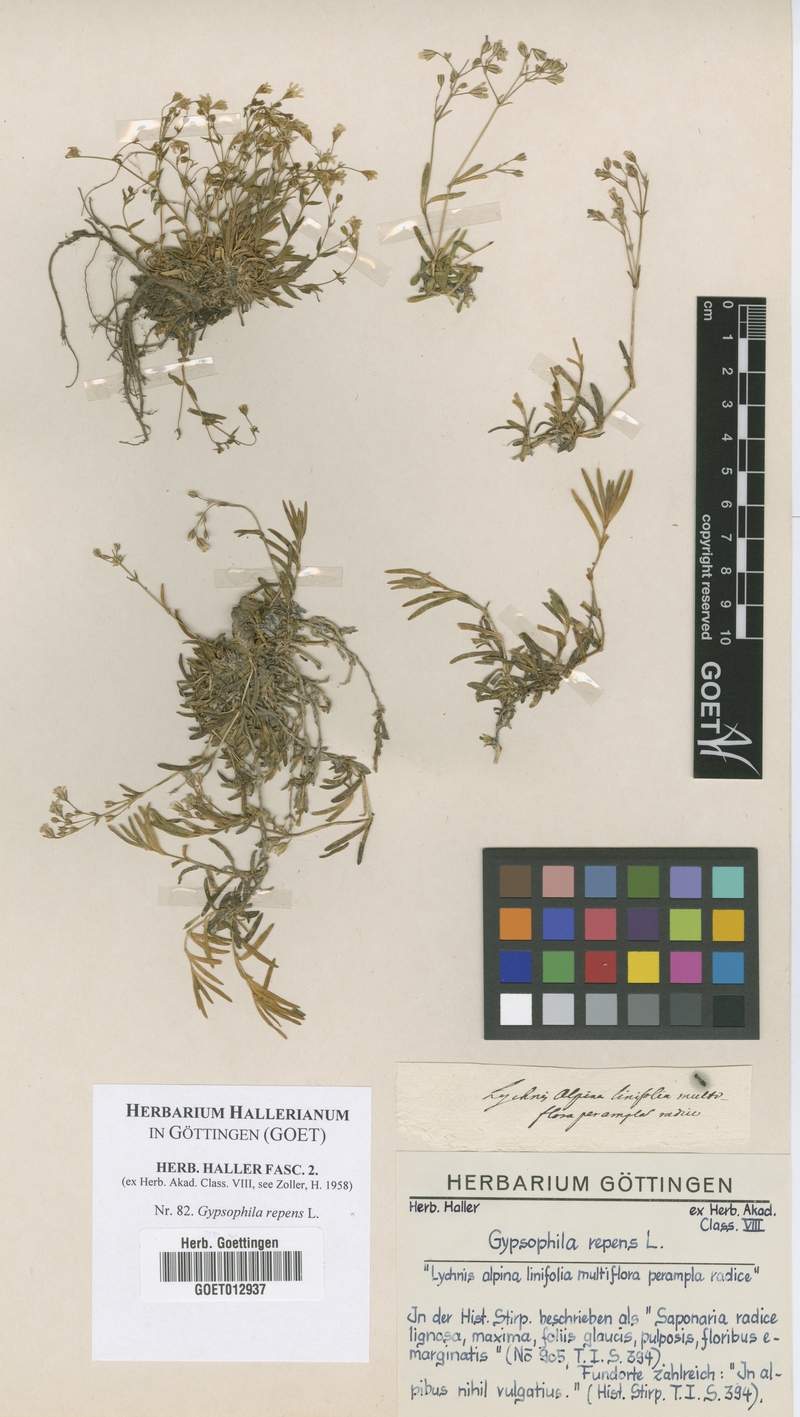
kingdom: Plantae
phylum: Tracheophyta
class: Magnoliopsida
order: Caryophyllales
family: Caryophyllaceae
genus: Gypsophila
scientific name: Gypsophila repens
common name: Creeping baby's-breath
